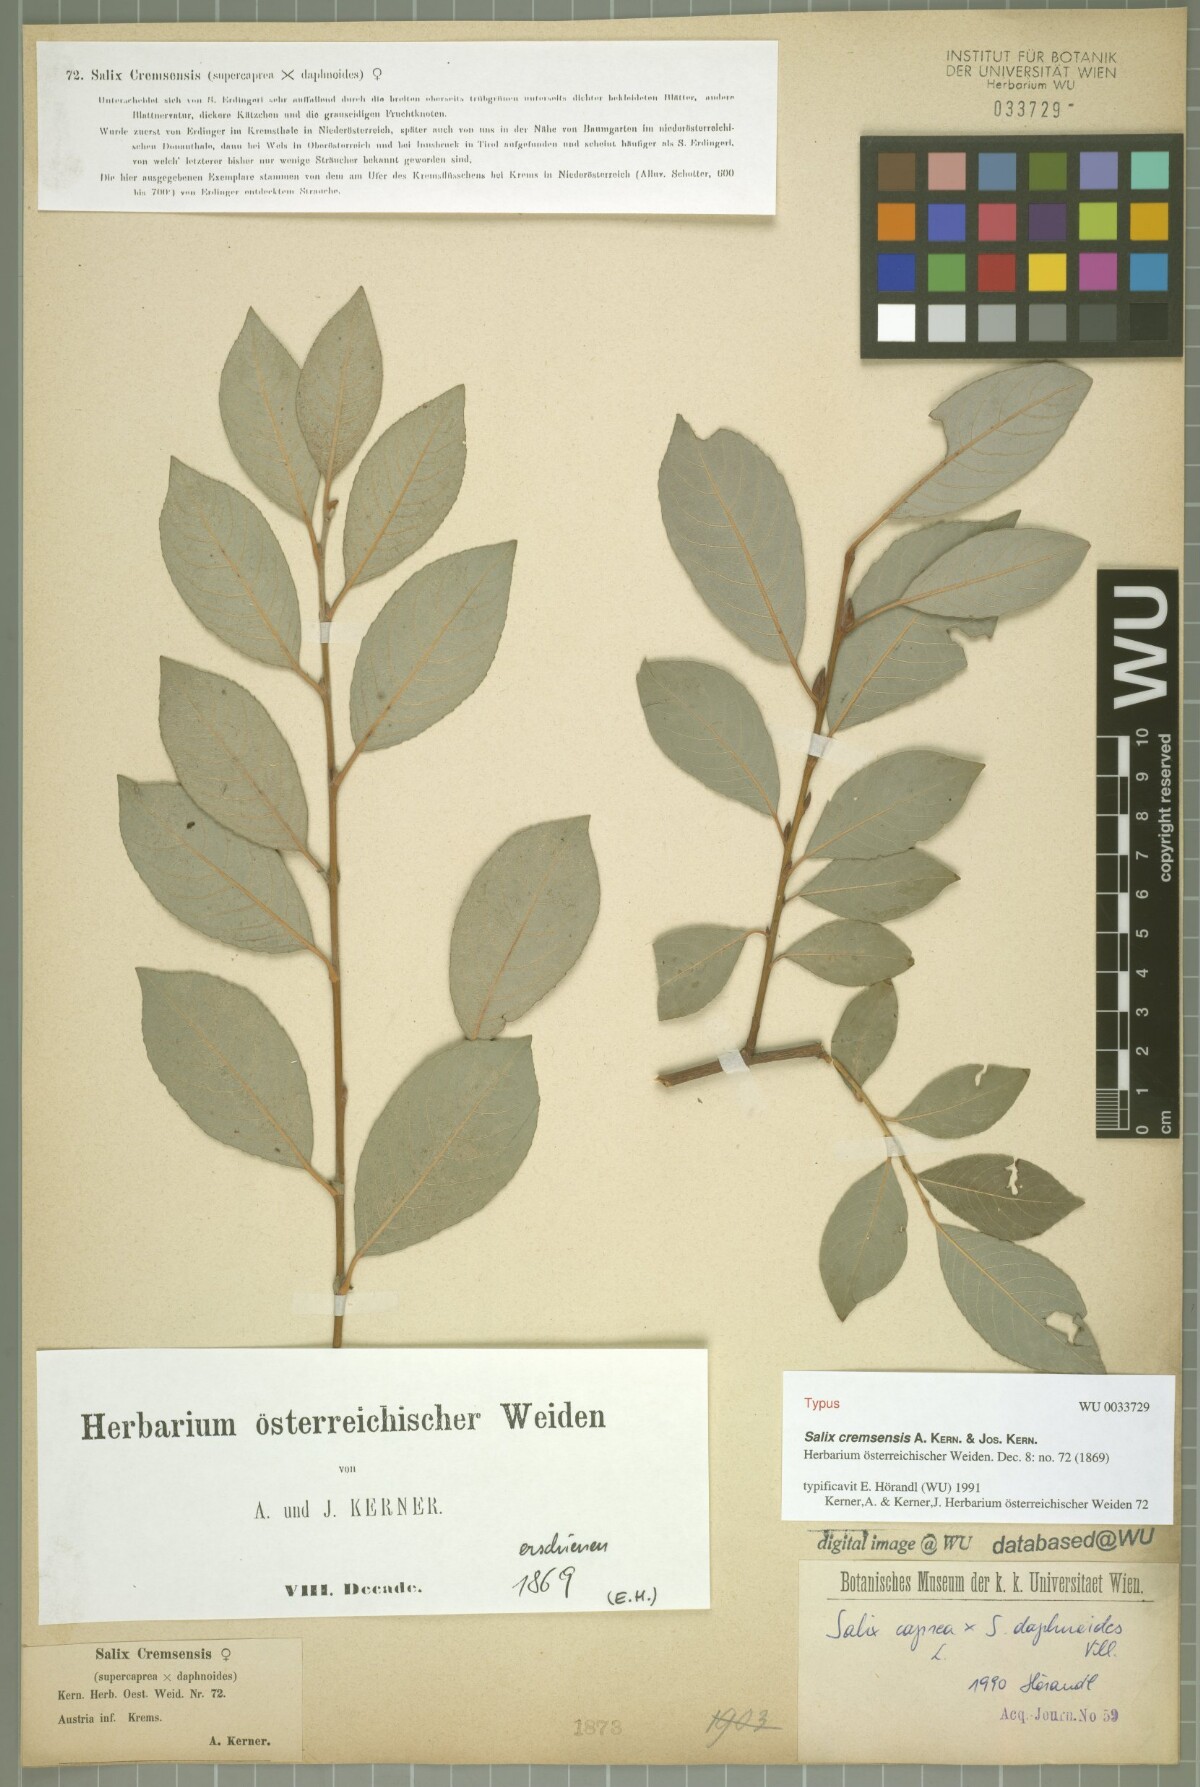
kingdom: Plantae
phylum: Tracheophyta
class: Magnoliopsida
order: Malpighiales
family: Salicaceae
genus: Salix
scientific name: Salix erdingeri
